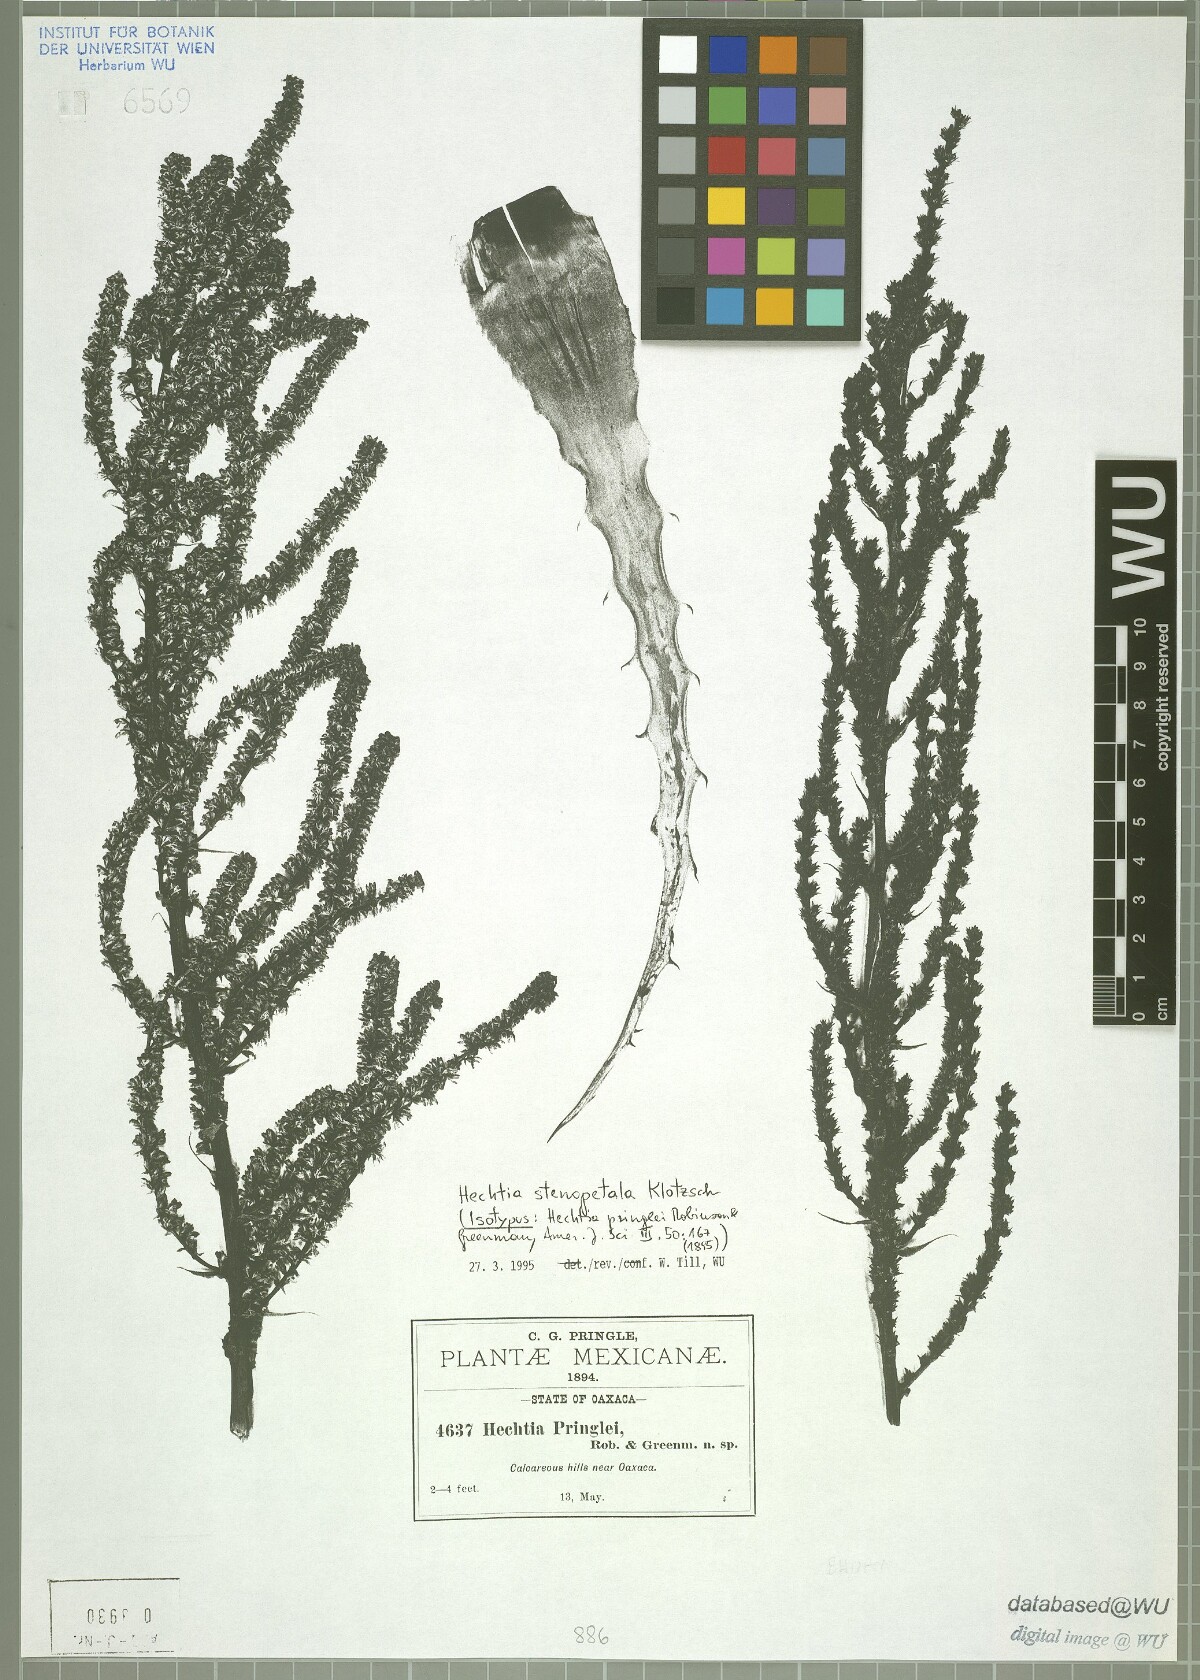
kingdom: Plantae
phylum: Tracheophyta
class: Liliopsida
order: Poales
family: Bromeliaceae
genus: Hechtia
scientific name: Hechtia pringlei
